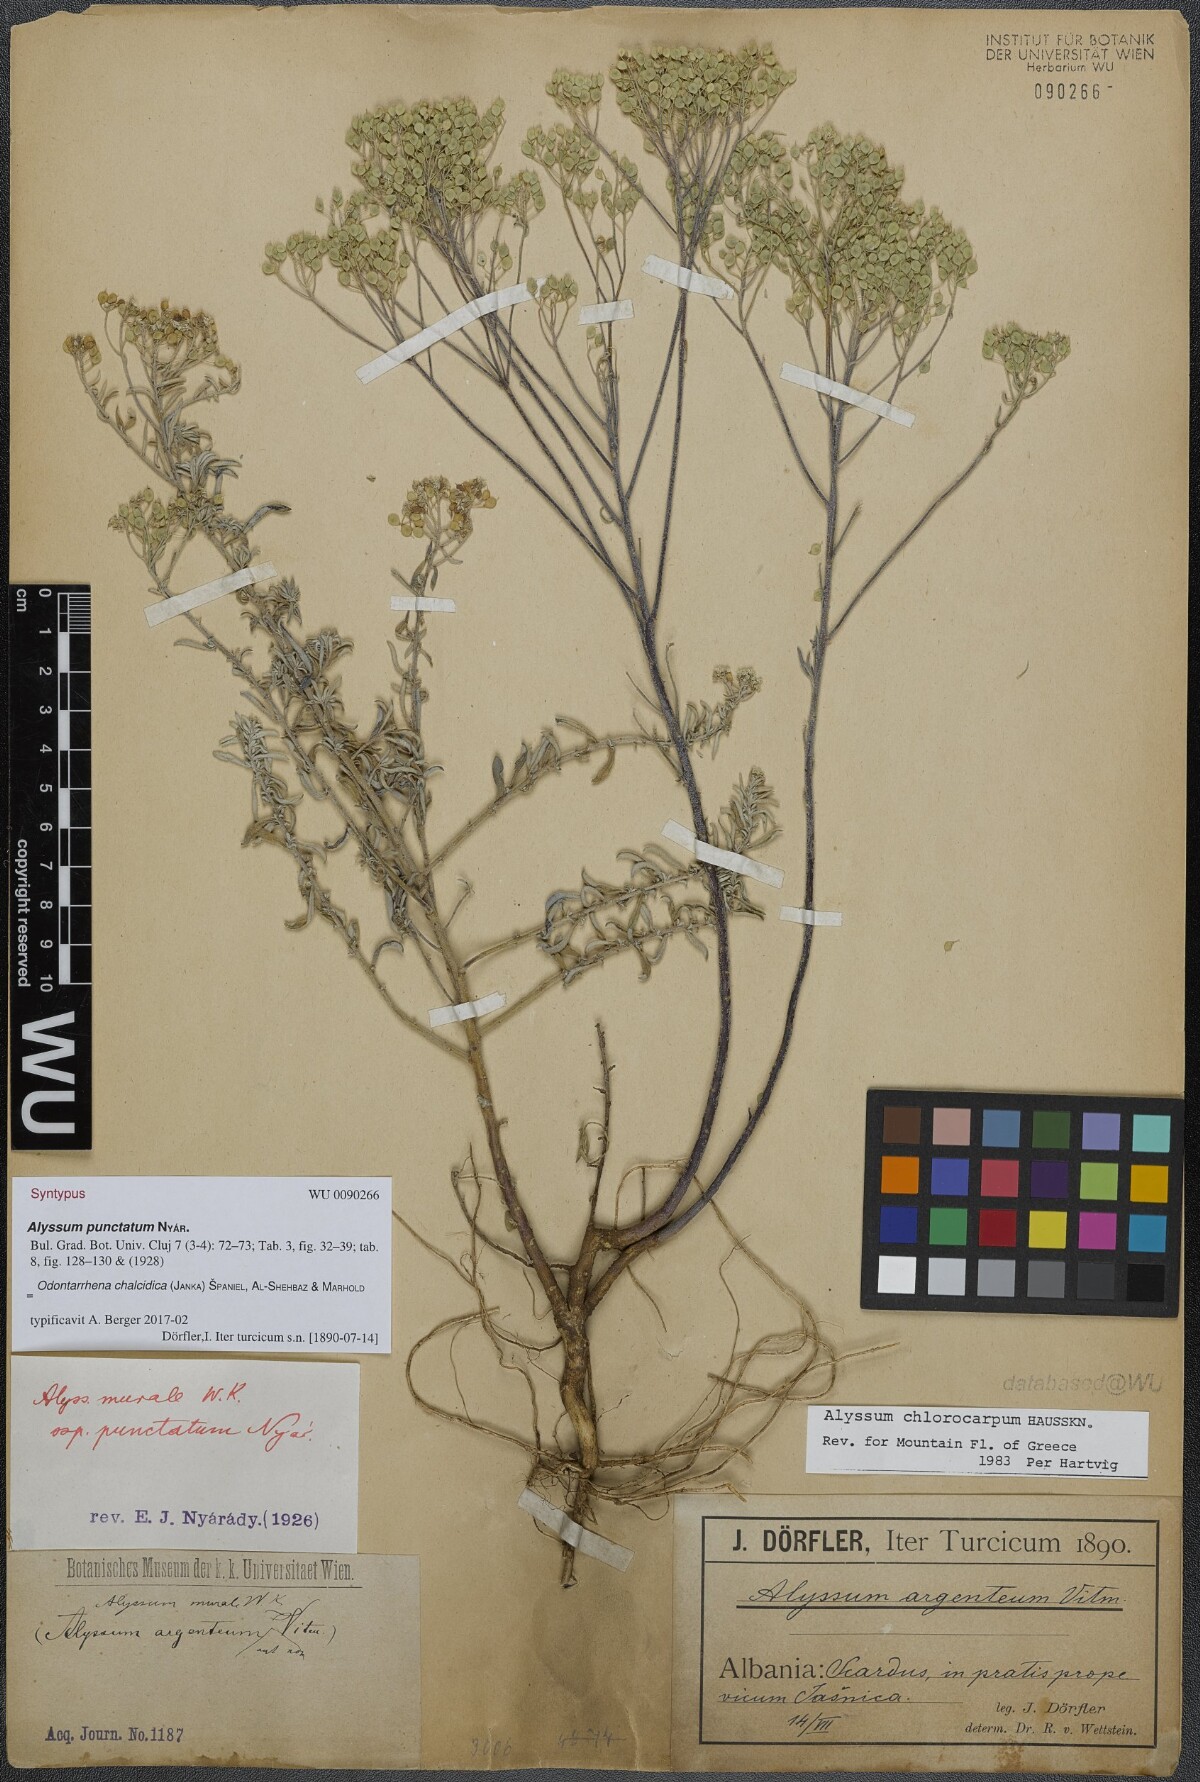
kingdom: Plantae
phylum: Tracheophyta
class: Magnoliopsida
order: Brassicales
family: Brassicaceae
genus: Odontarrhena
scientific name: Odontarrhena muralis
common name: Rock alyssum
